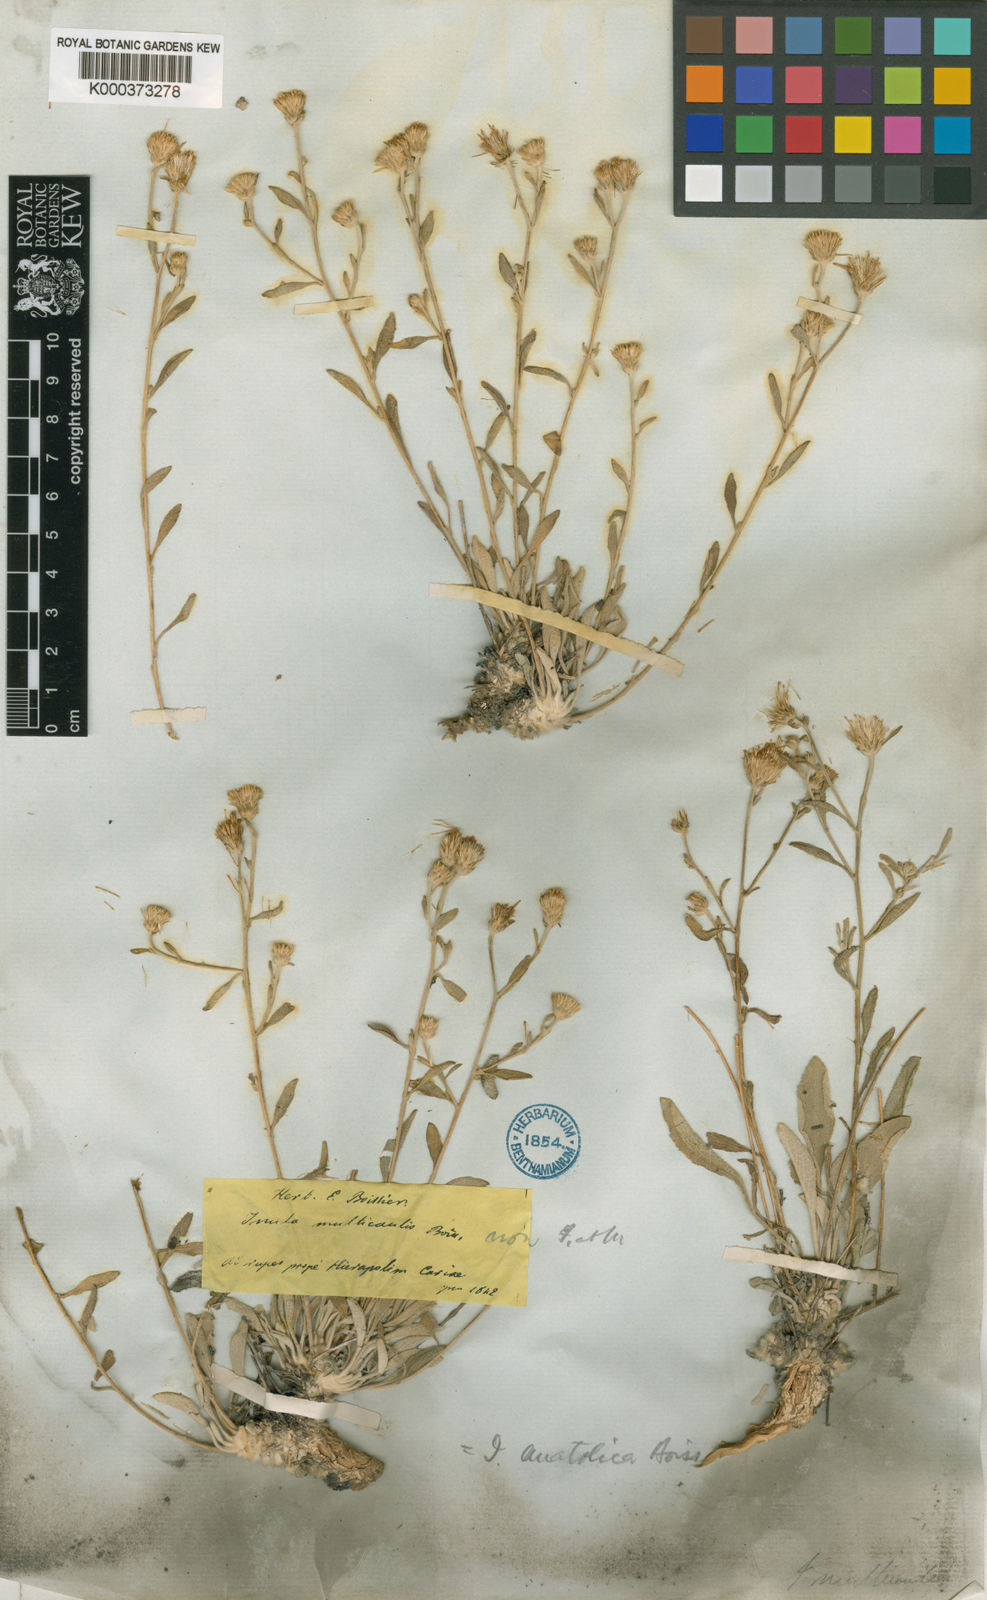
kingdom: Plantae
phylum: Tracheophyta
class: Magnoliopsida
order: Asterales
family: Asteraceae
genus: Inula
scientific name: Inula anatolica
